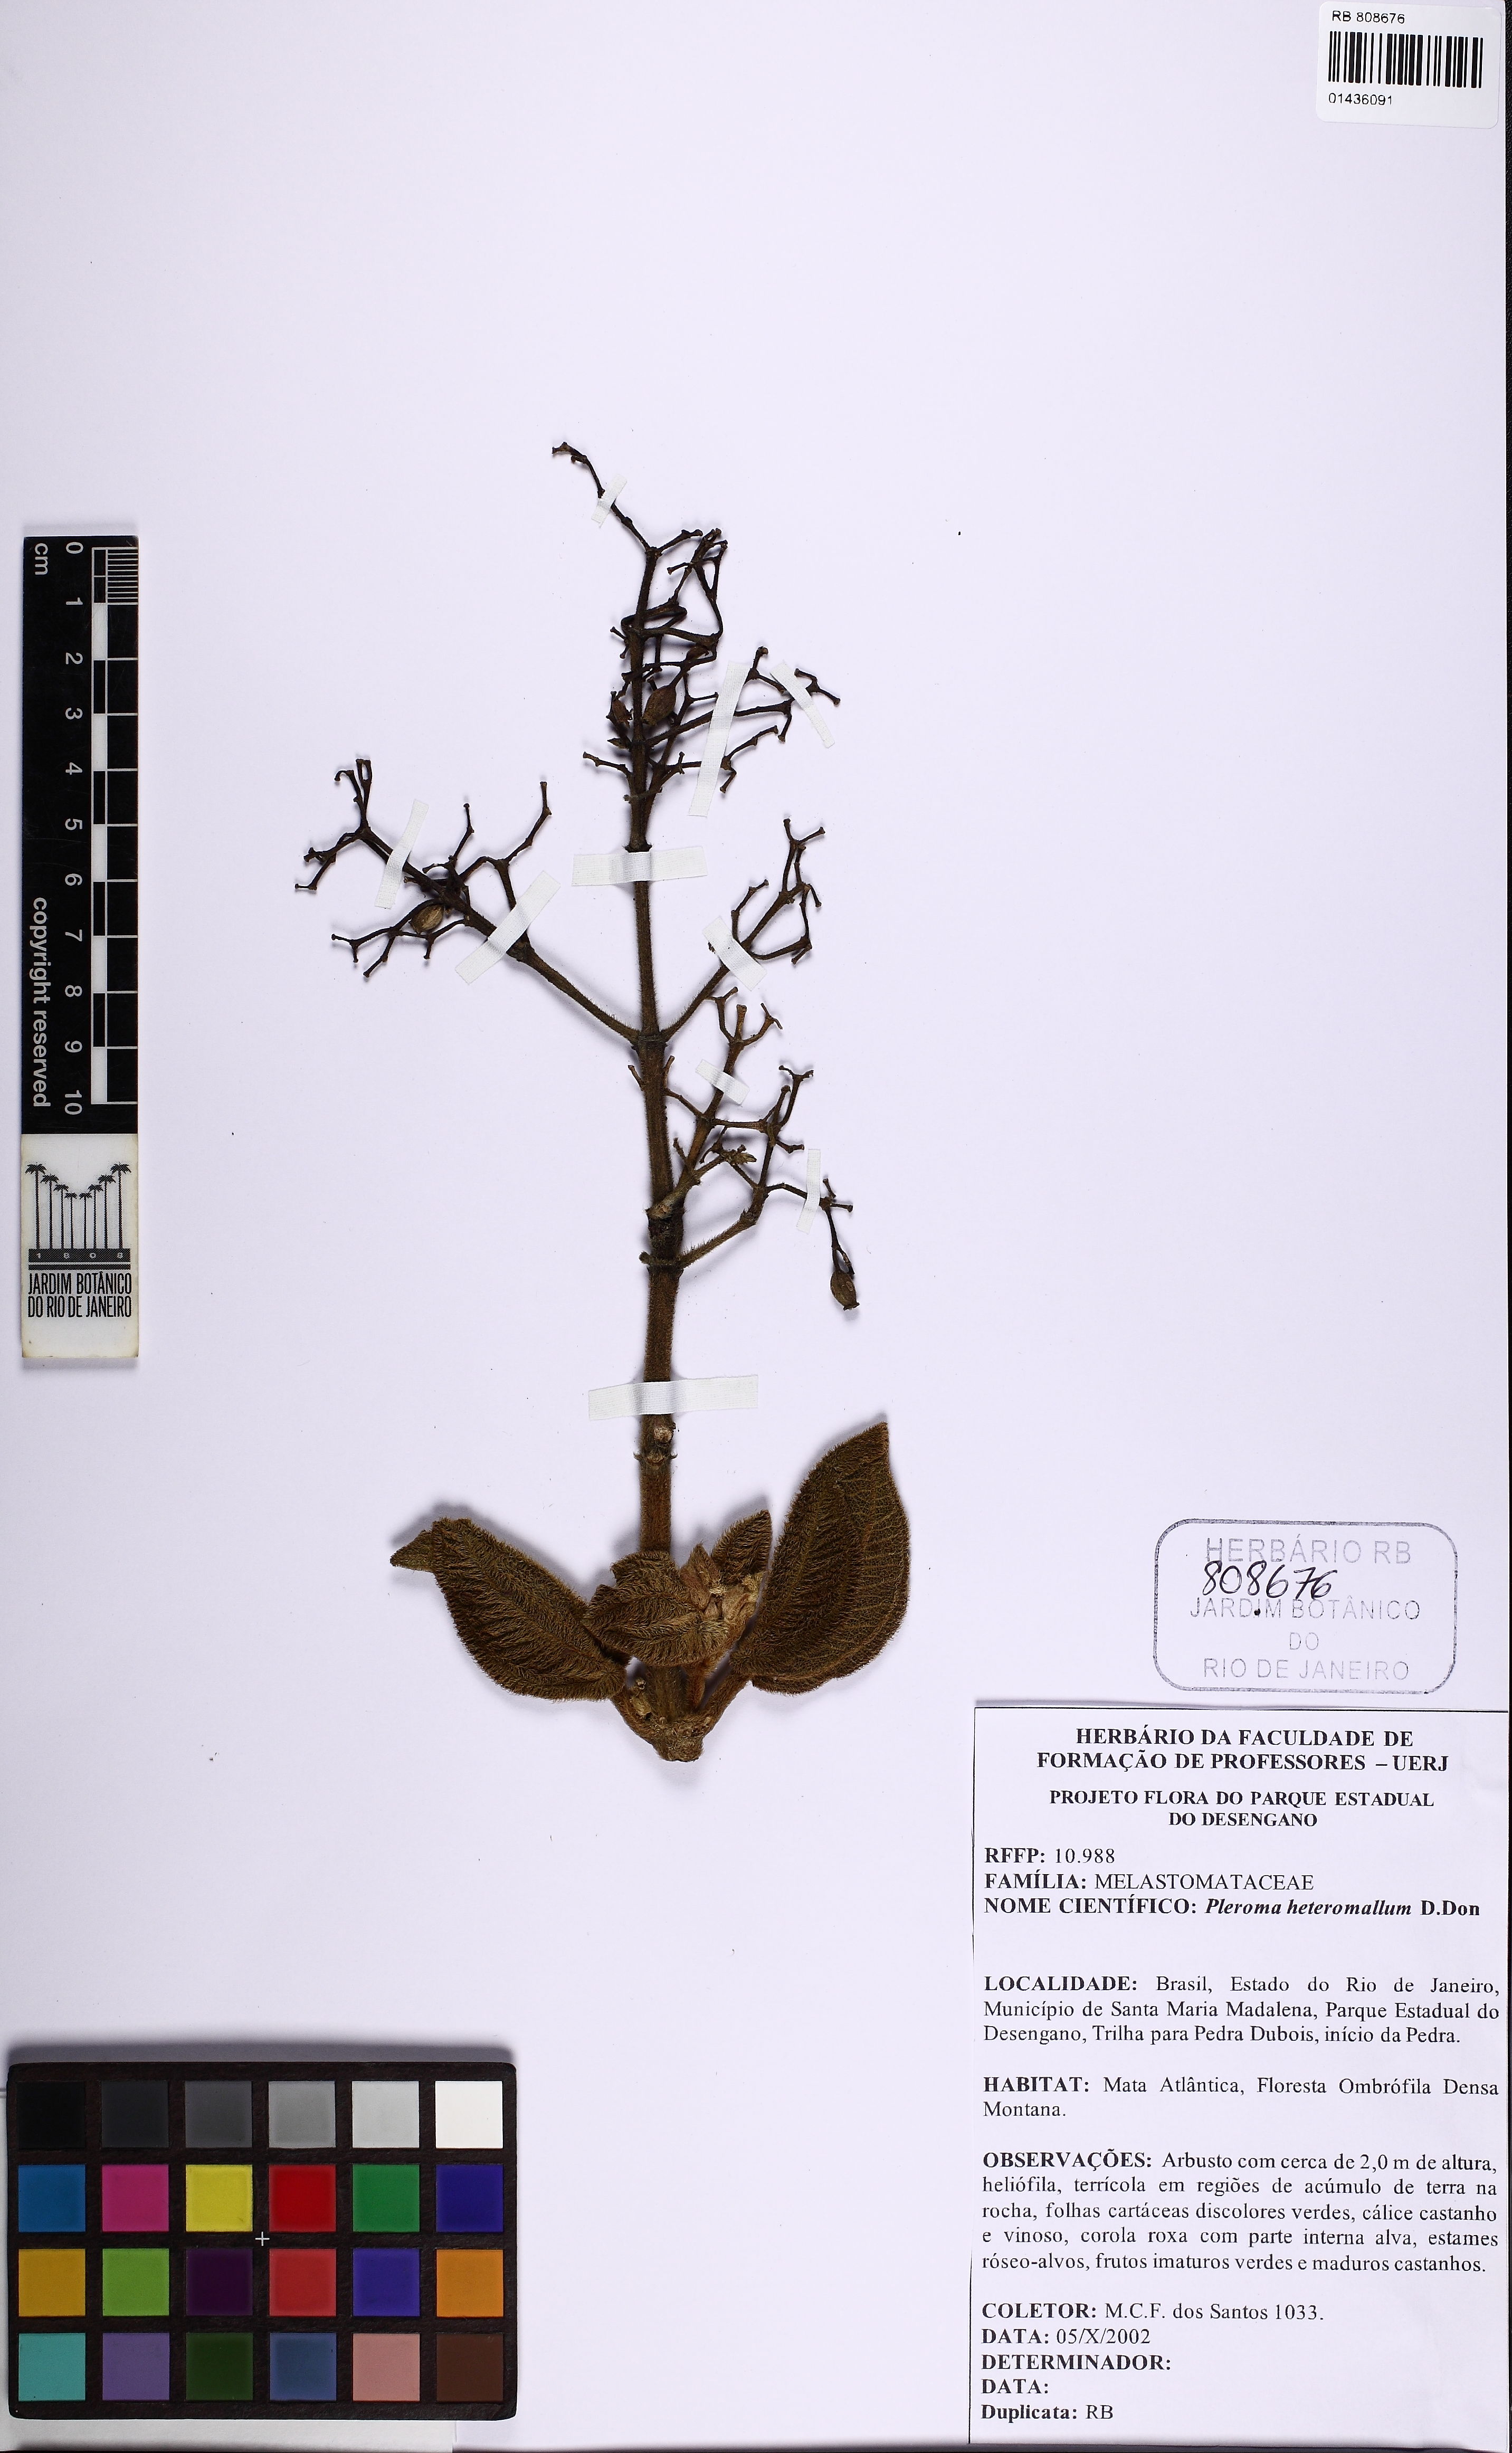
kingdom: Plantae
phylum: Tracheophyta
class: Magnoliopsida
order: Myrtales
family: Melastomataceae
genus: Pleroma
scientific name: Pleroma heteromallum
